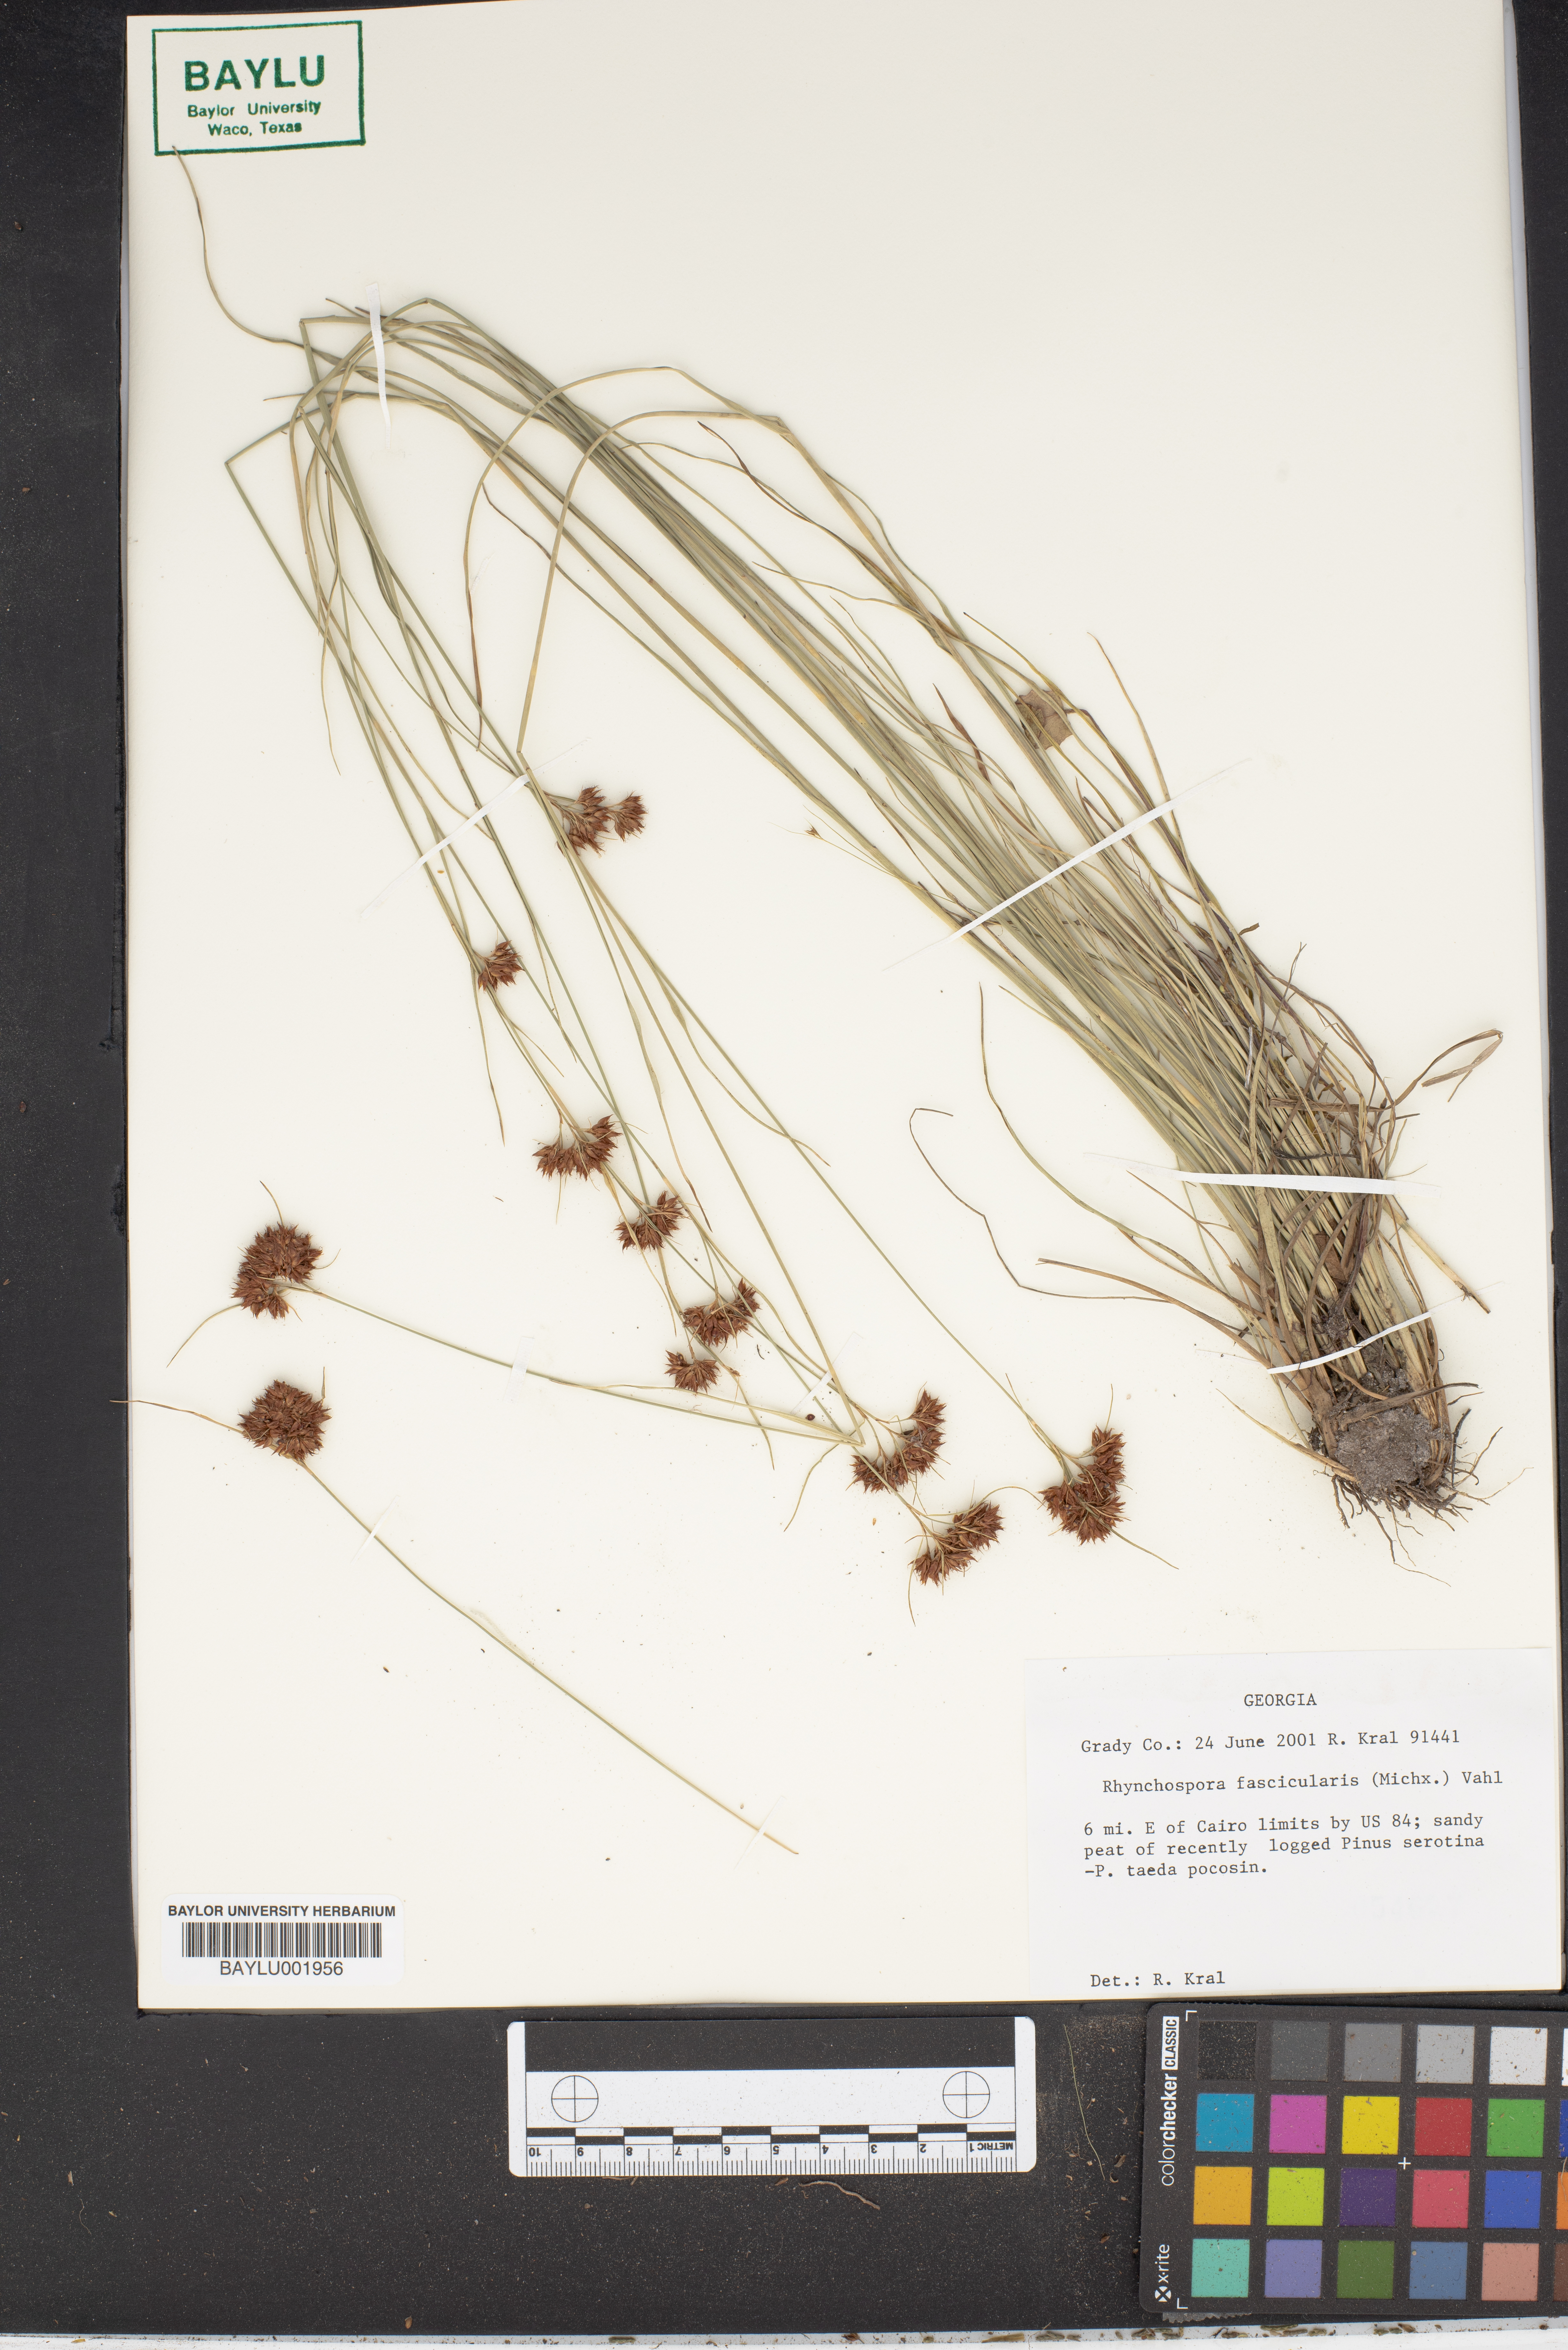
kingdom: Plantae
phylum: Tracheophyta
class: Liliopsida
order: Poales
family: Cyperaceae
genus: Rhynchospora
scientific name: Rhynchospora fascicularis
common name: Fascicled beak sedge
